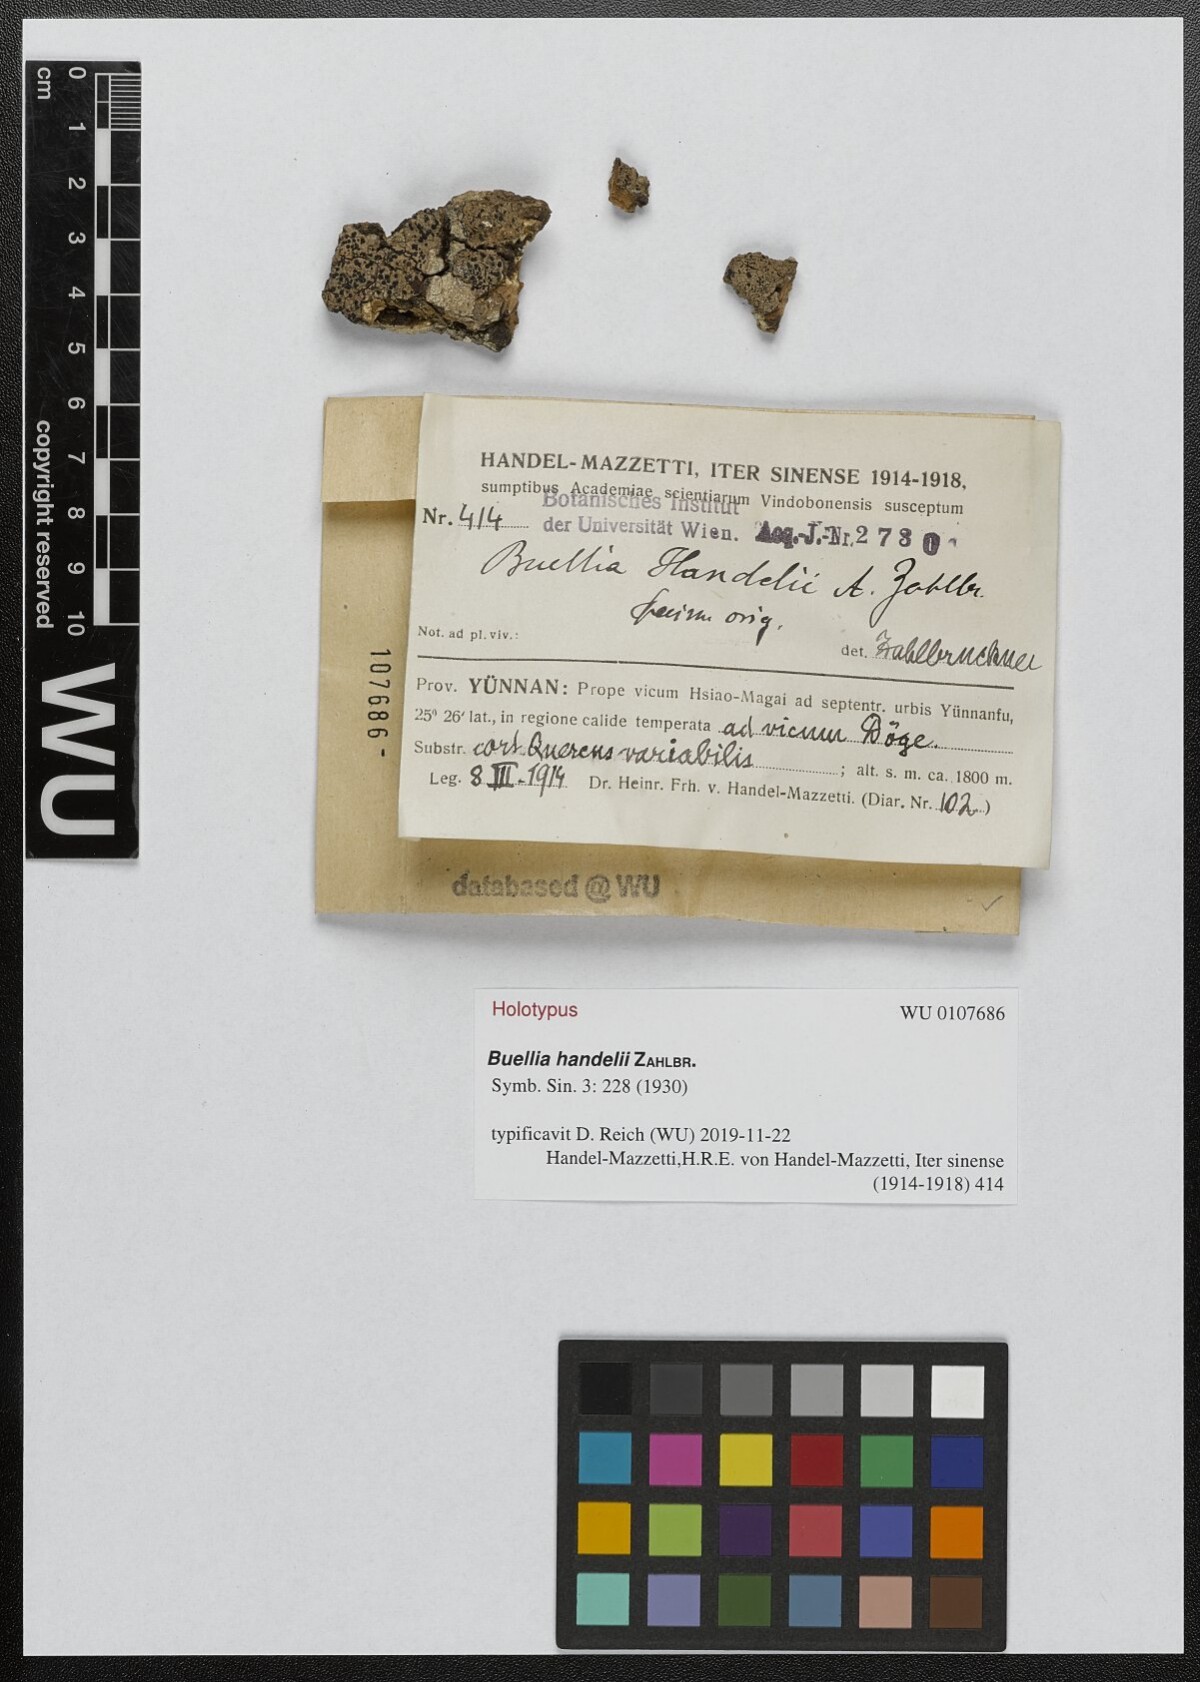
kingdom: Fungi
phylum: Ascomycota
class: Lecanoromycetes
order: Caliciales
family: Physciaceae
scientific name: Physciaceae
